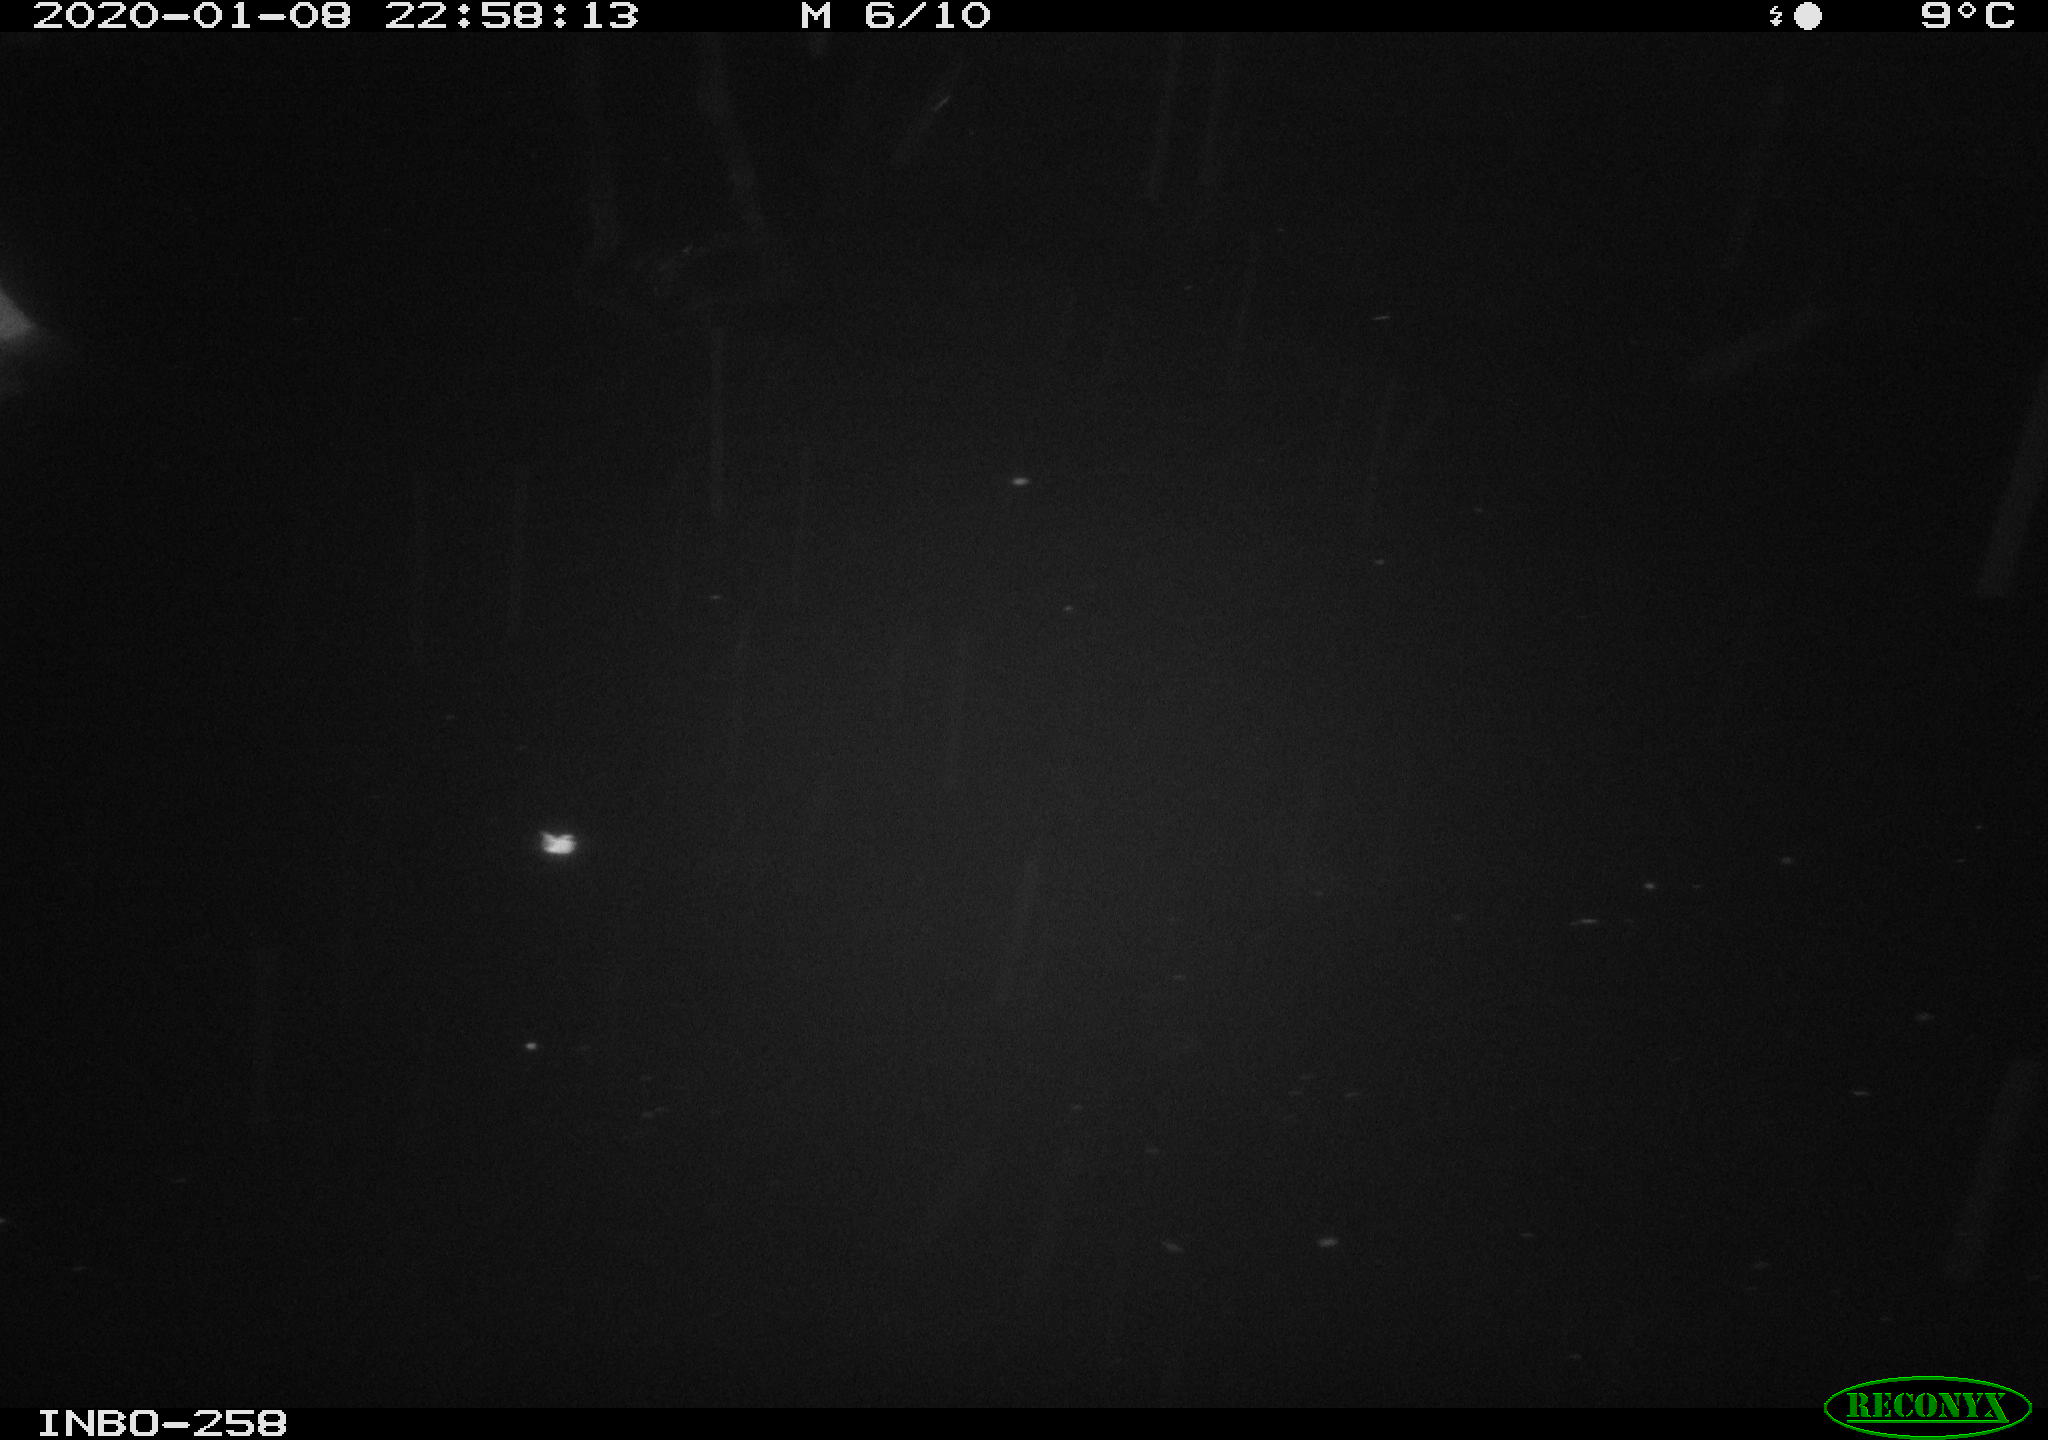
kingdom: Animalia
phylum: Chordata
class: Aves
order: Anseriformes
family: Anatidae
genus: Anas
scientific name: Anas platyrhynchos
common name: Mallard
